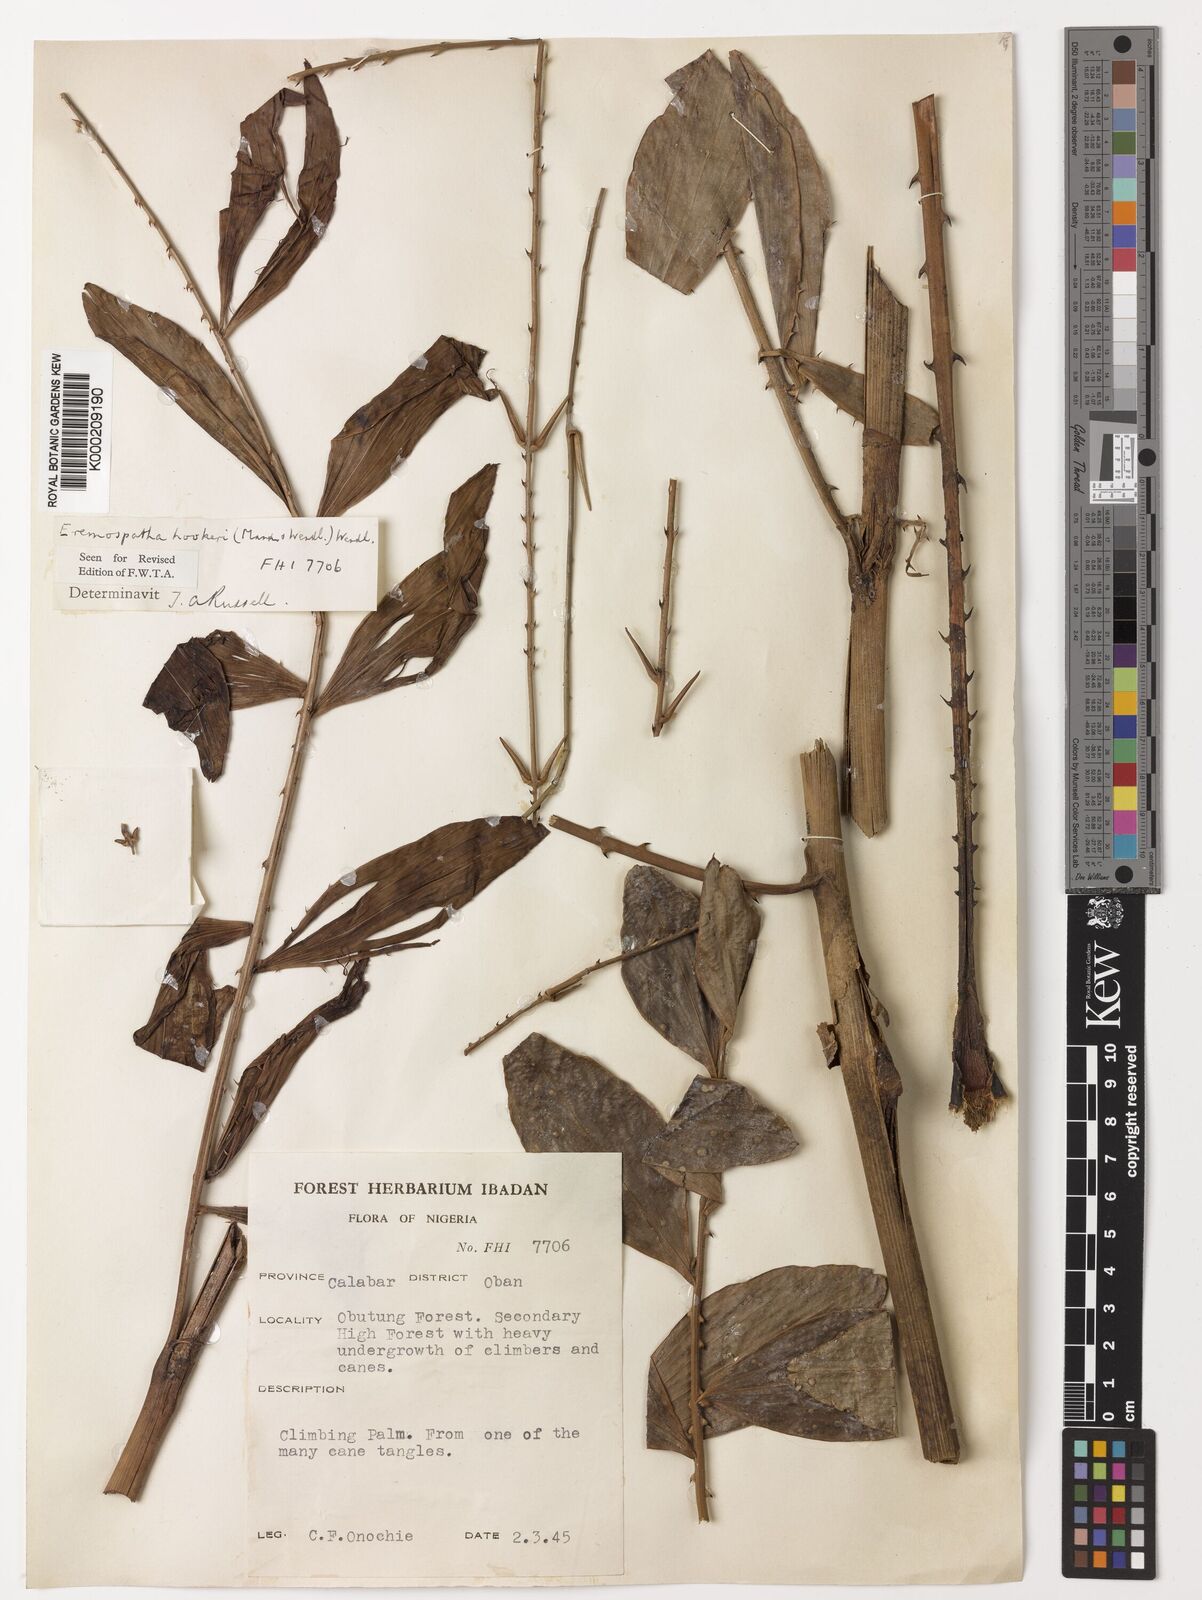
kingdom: Plantae
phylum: Tracheophyta
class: Liliopsida
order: Arecales
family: Arecaceae
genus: Eremospatha
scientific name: Eremospatha hookeri
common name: Rattan
